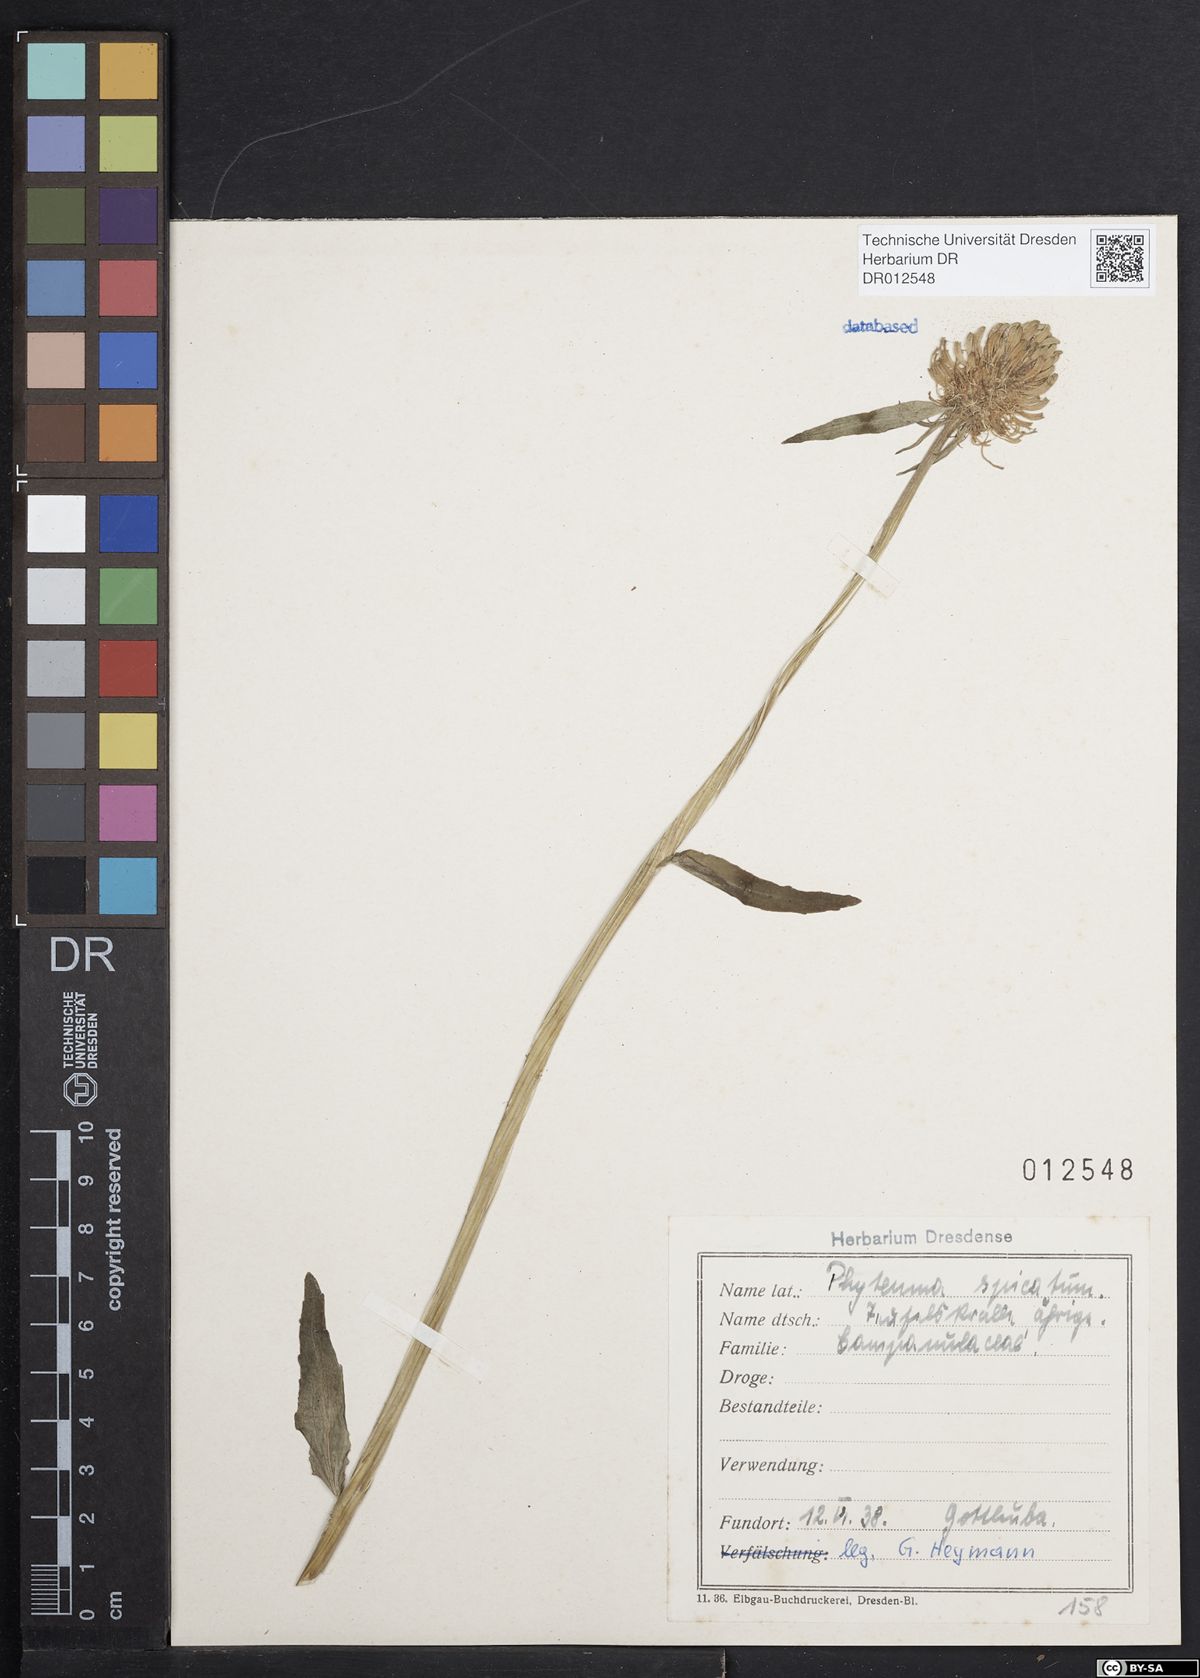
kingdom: Plantae
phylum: Tracheophyta
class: Magnoliopsida
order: Asterales
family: Campanulaceae
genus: Phyteuma
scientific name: Phyteuma spicatum
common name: Spiked rampion
